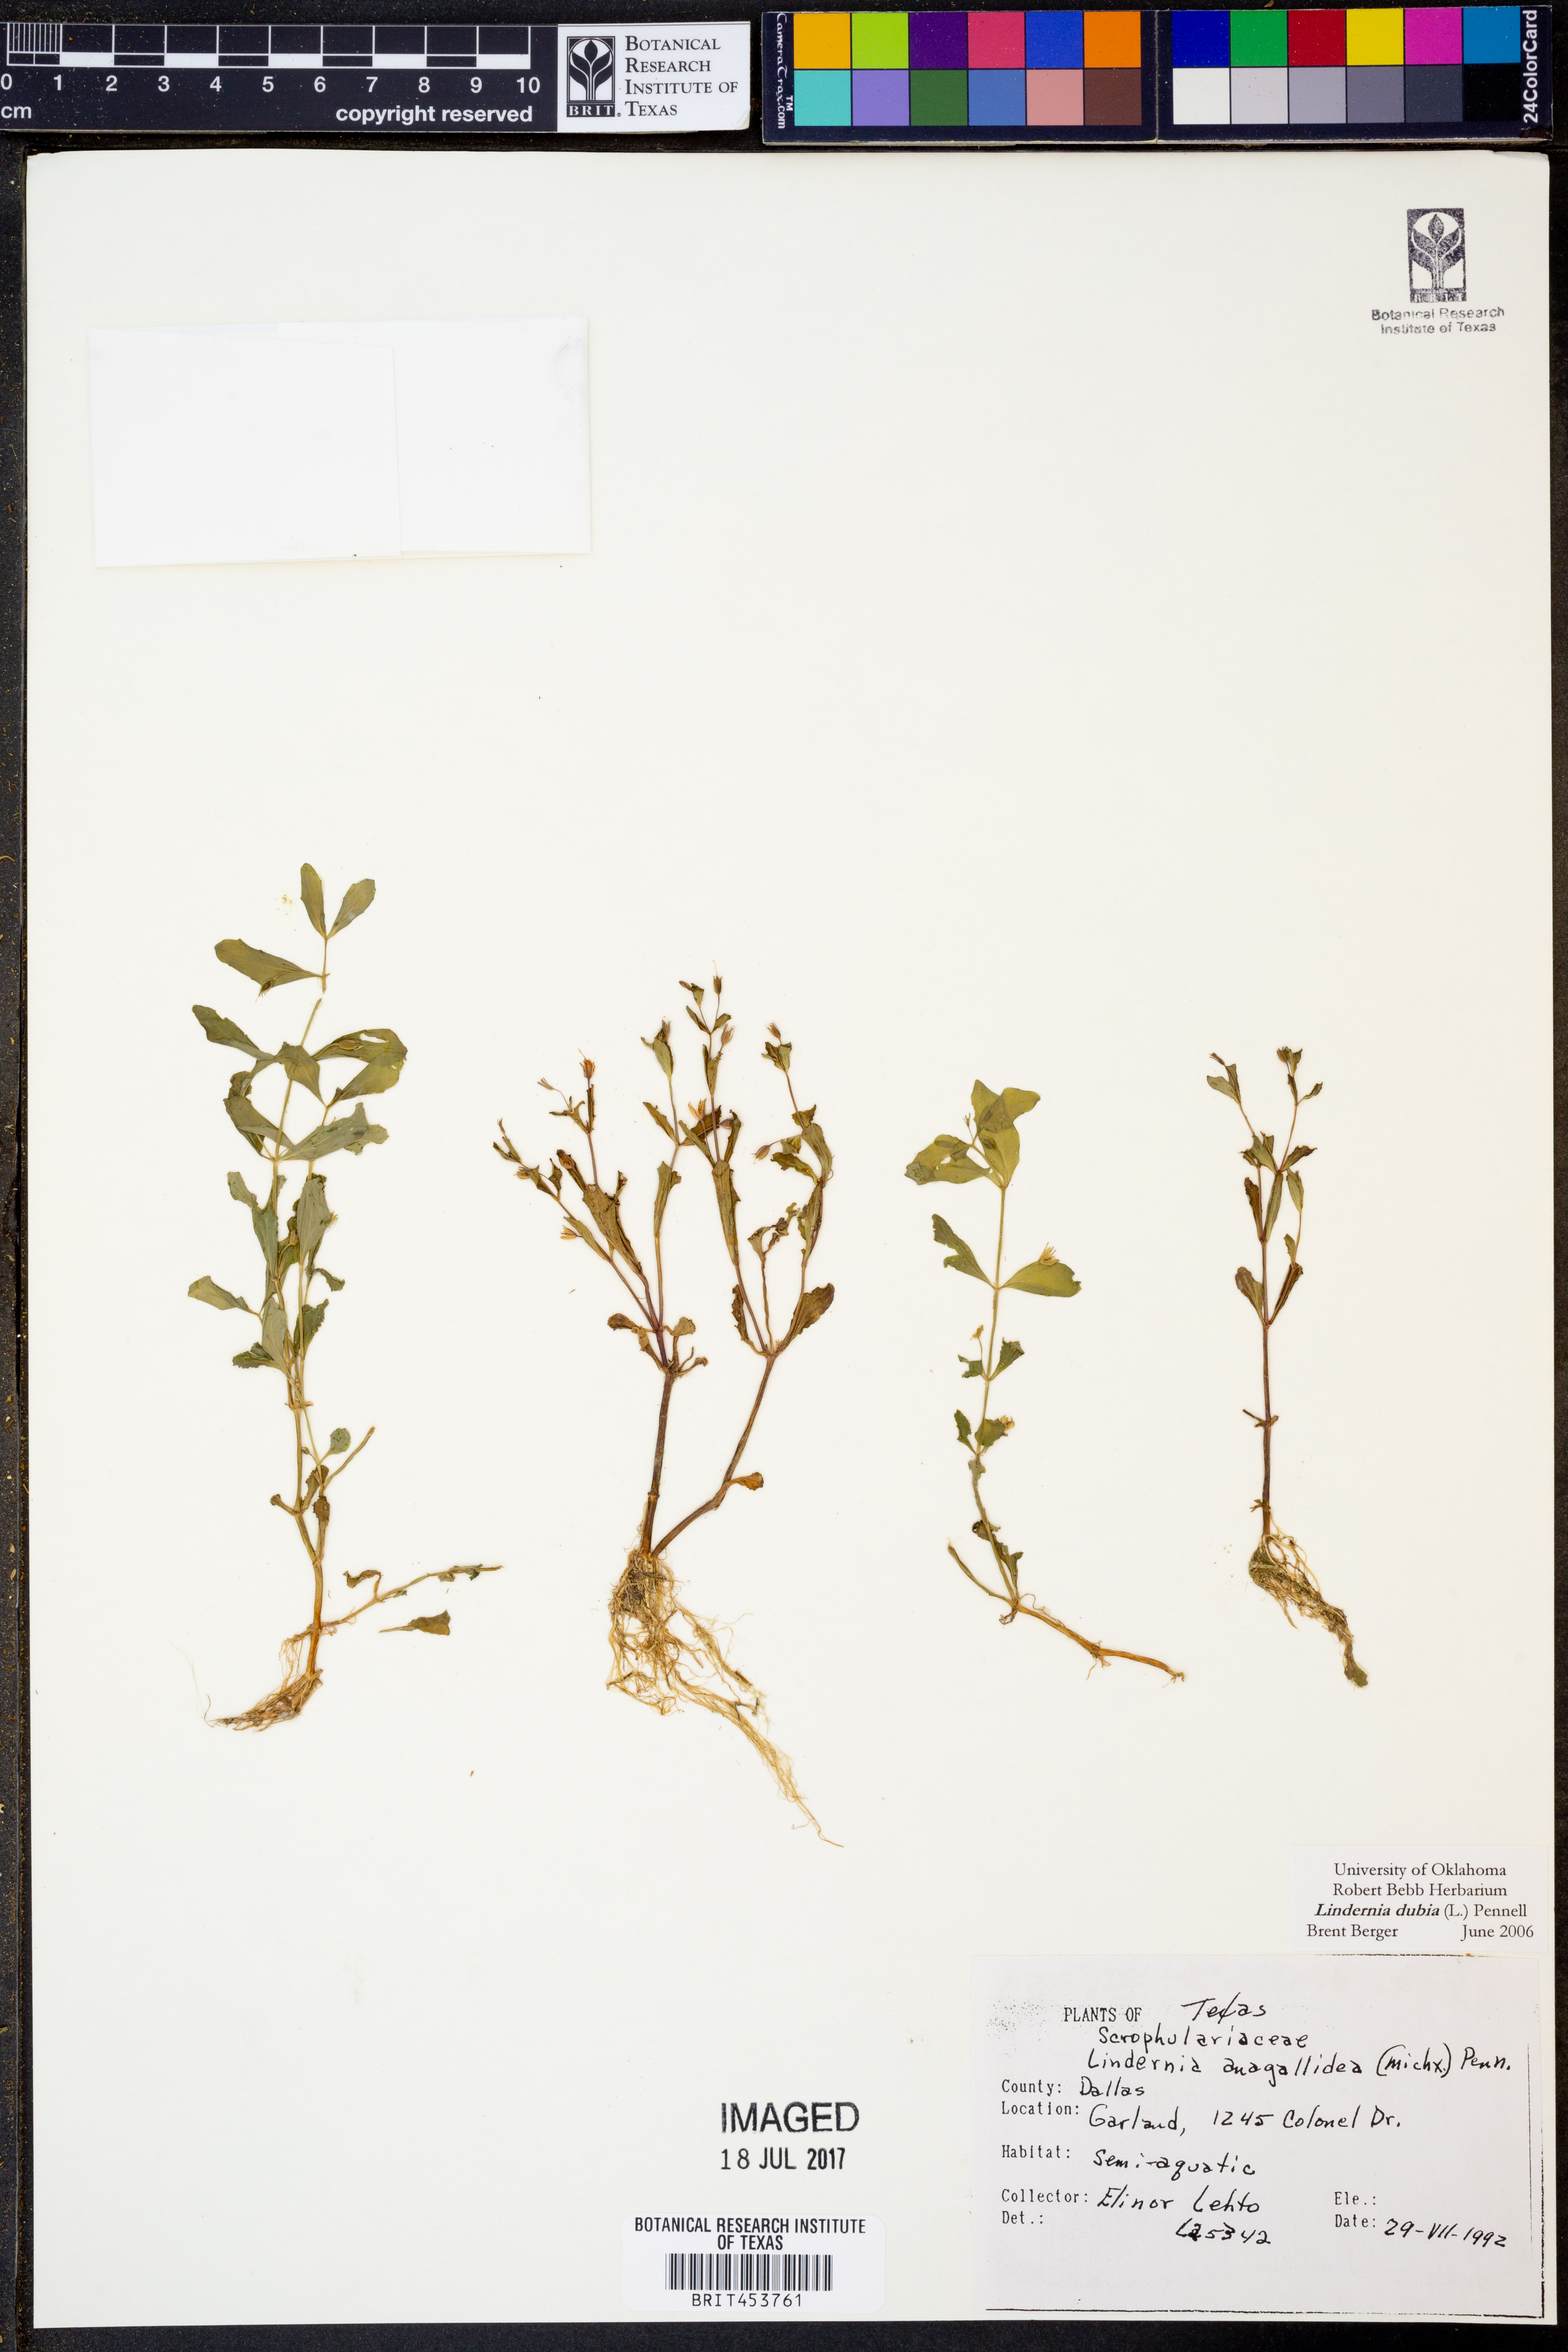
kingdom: Plantae
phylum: Tracheophyta
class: Magnoliopsida
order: Lamiales
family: Linderniaceae
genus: Lindernia
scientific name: Lindernia dubia
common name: Annual false pimpernel
